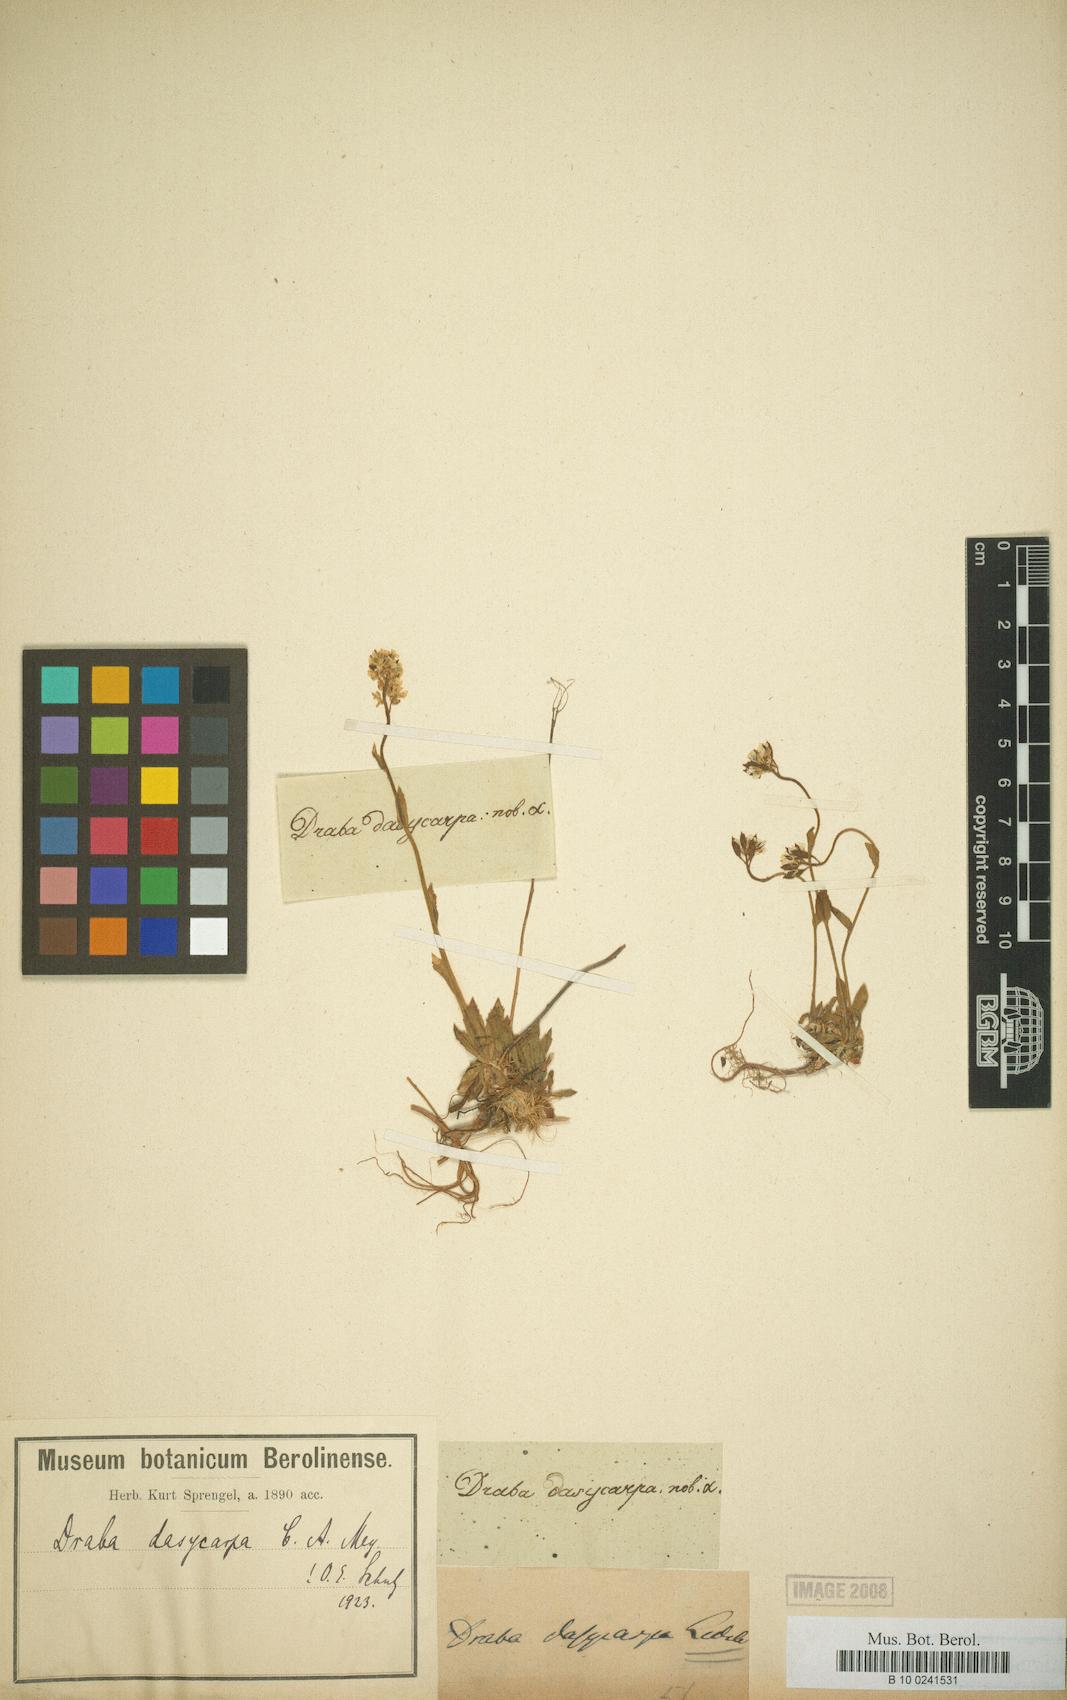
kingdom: Plantae
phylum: Tracheophyta
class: Magnoliopsida
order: Brassicales
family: Brassicaceae
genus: Draba
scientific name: Draba subamplexicaulis
